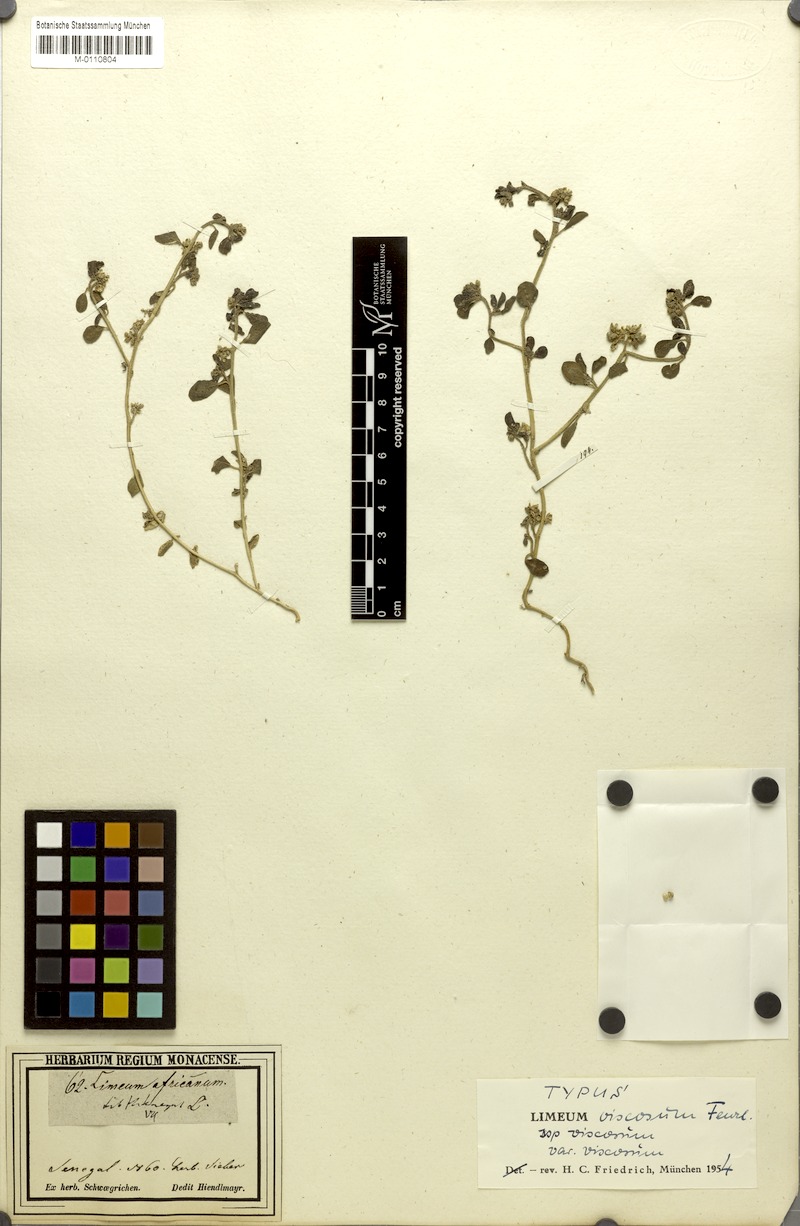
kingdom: Plantae
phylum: Tracheophyta
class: Magnoliopsida
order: Caryophyllales
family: Limeaceae
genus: Limeum
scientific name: Limeum viscosum
